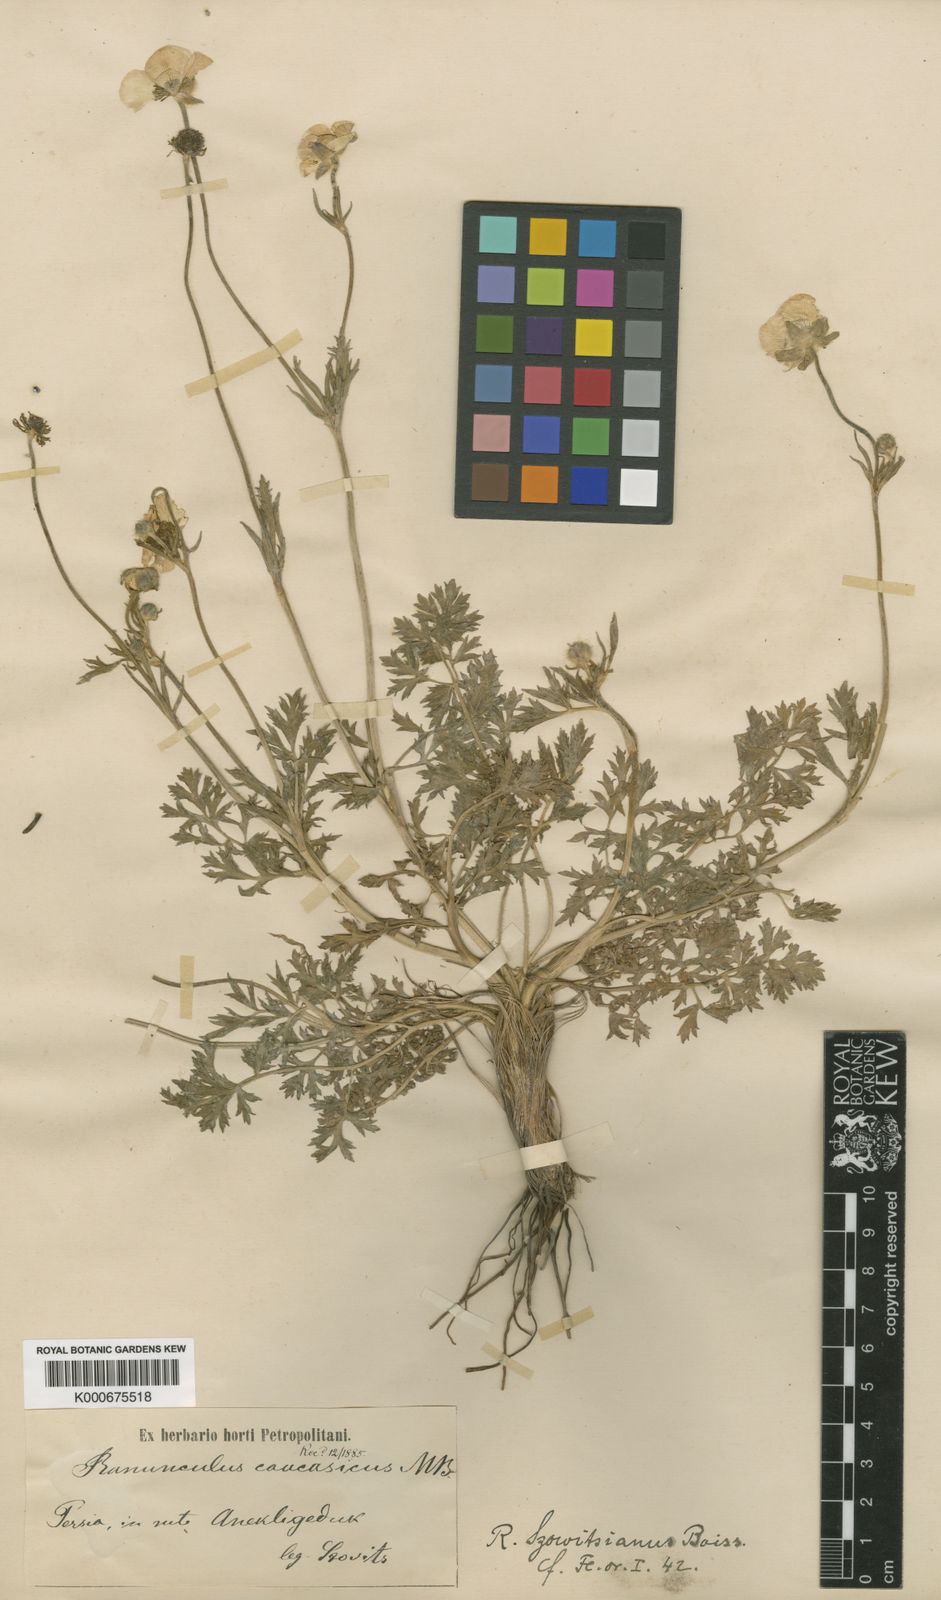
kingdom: Plantae
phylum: Tracheophyta
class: Magnoliopsida
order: Ranunculales
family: Ranunculaceae
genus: Ranunculus
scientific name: Ranunculus caucasicus
